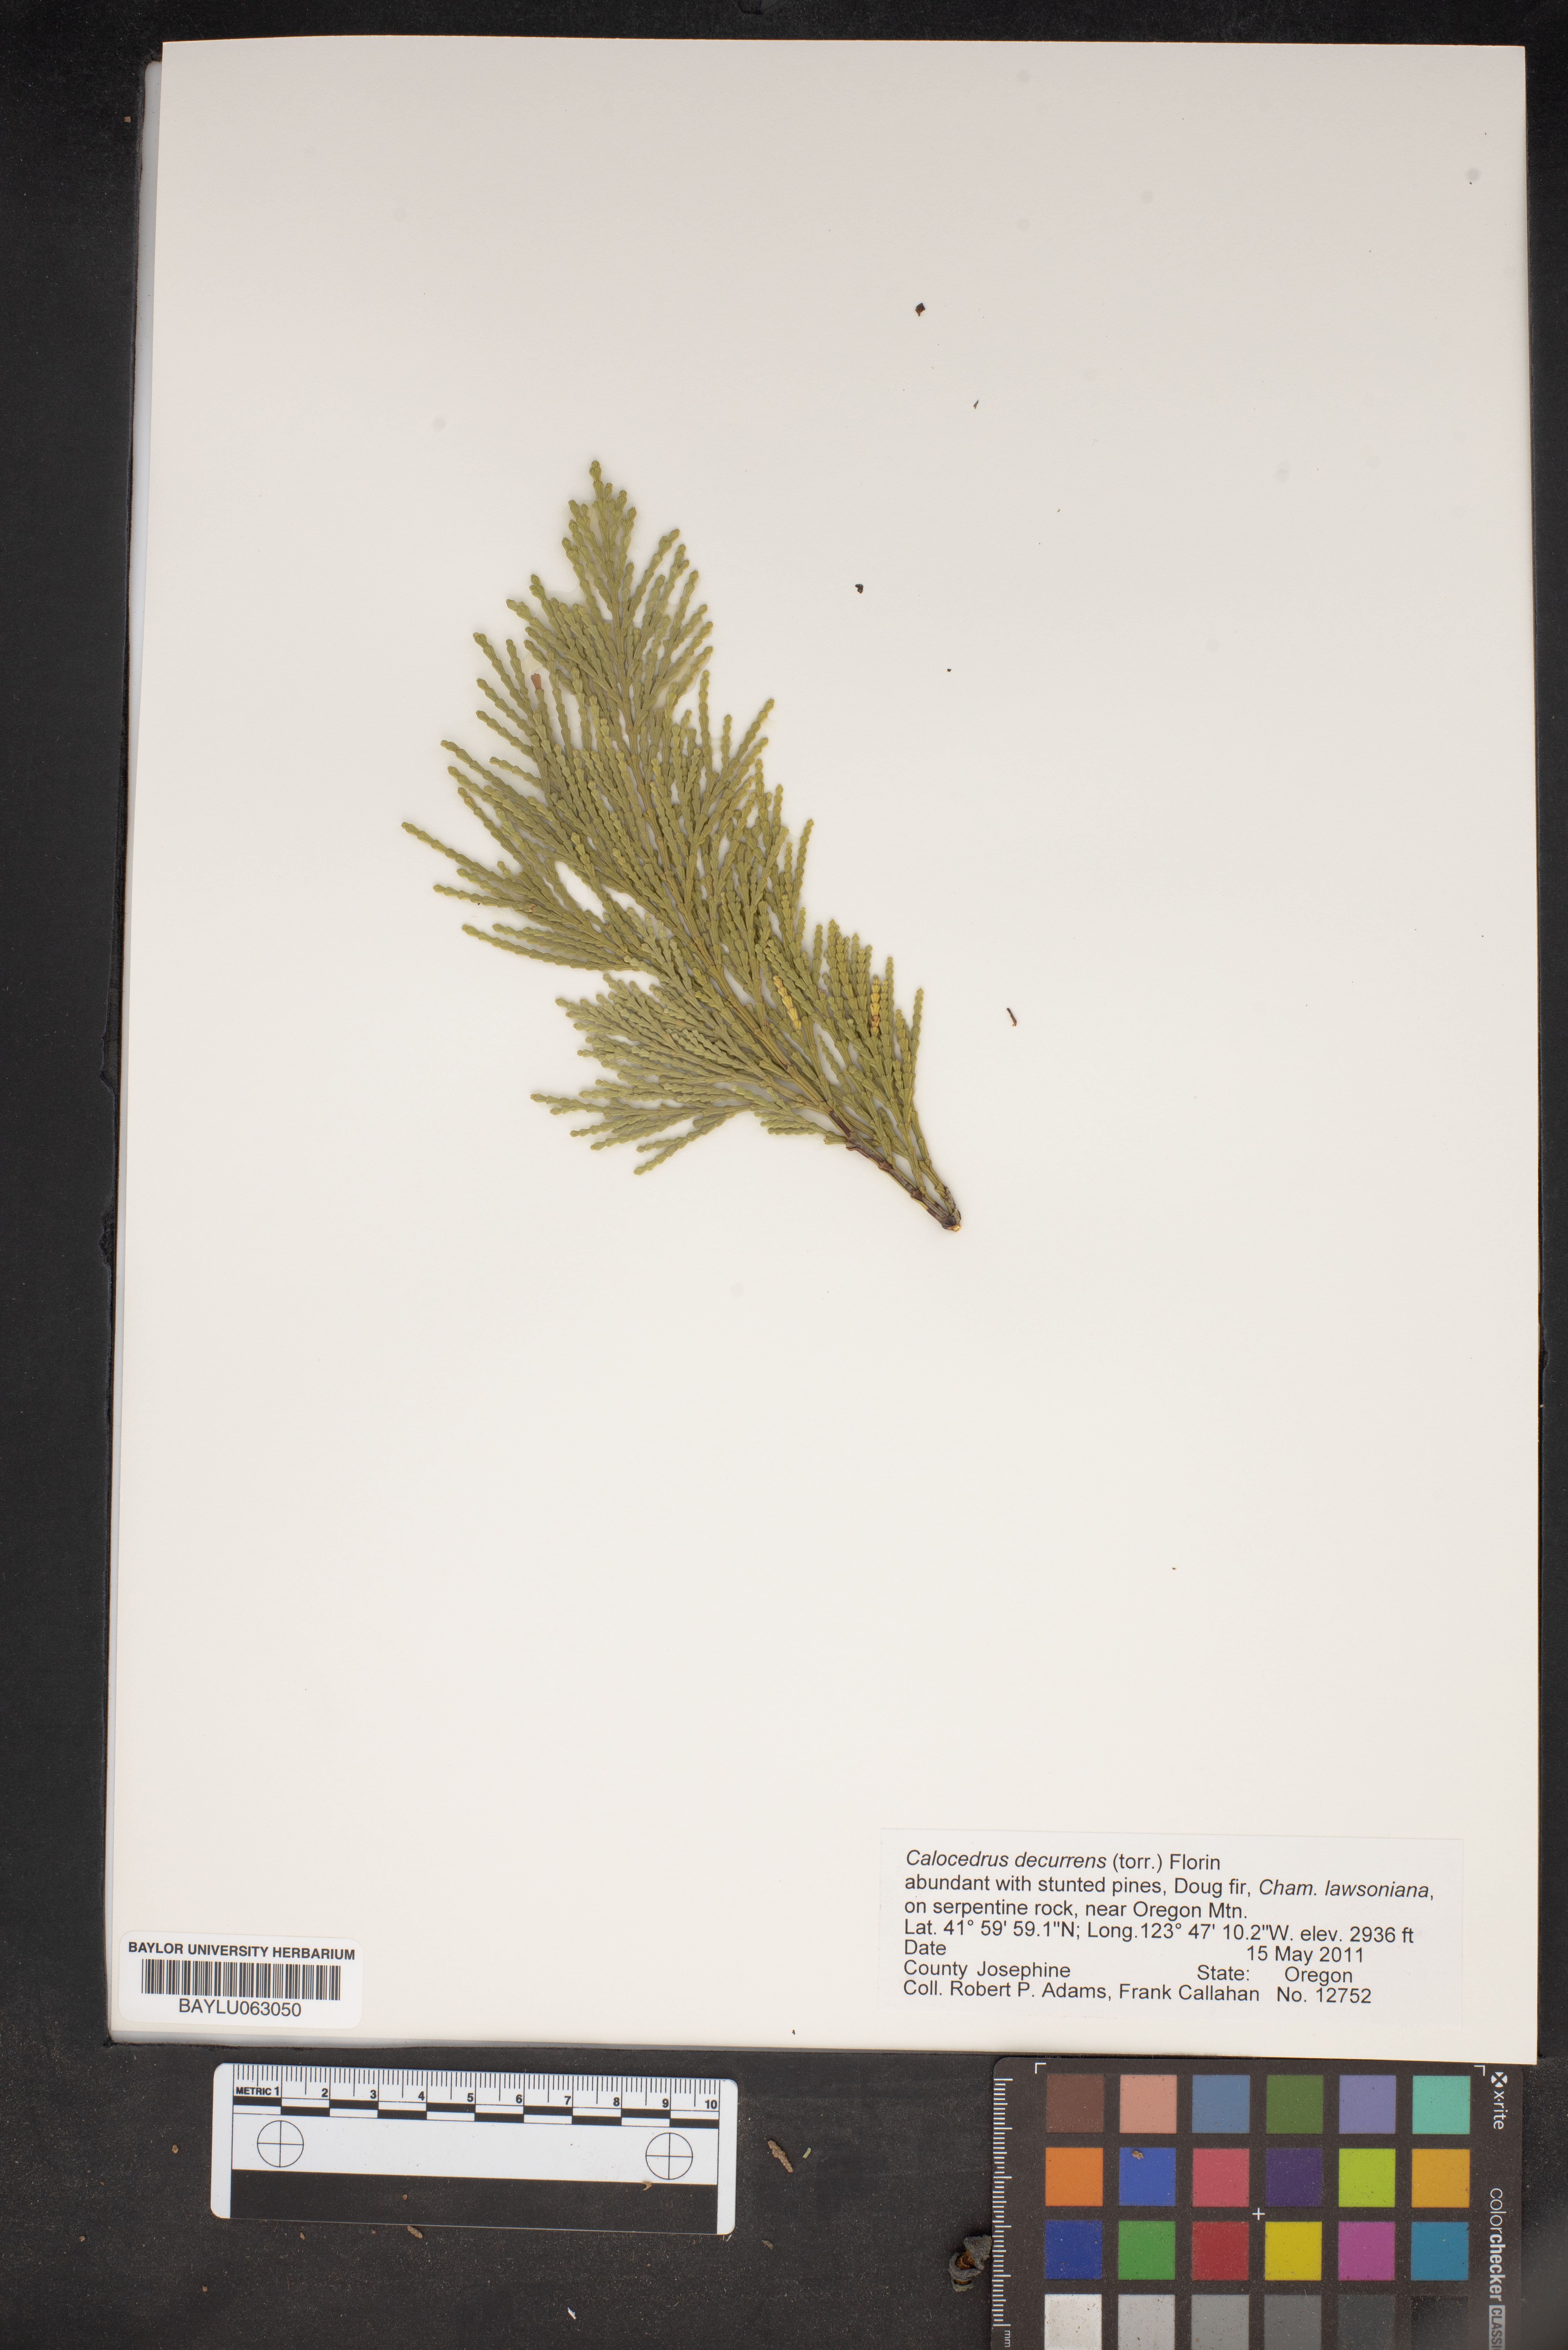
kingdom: Plantae
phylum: Tracheophyta
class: Pinopsida
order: Pinales
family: Cupressaceae
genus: Calocedrus
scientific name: Calocedrus decurrens
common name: Californian incense-cedar
